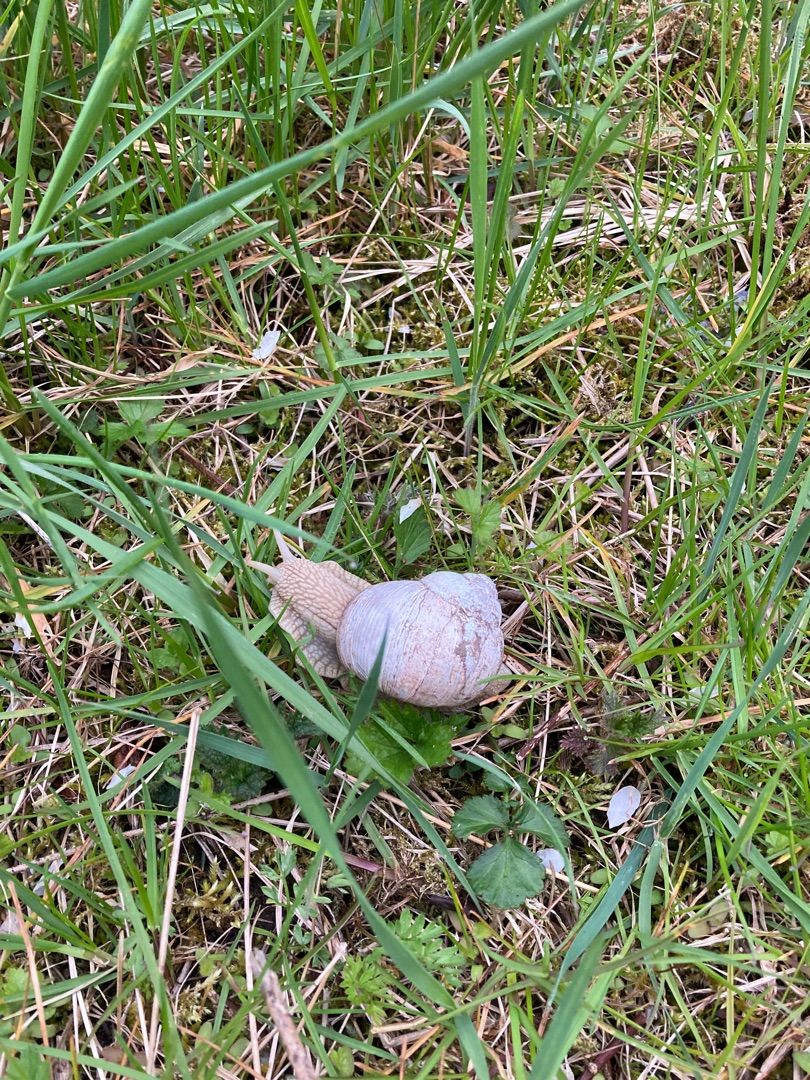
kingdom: Animalia
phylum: Mollusca
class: Gastropoda
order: Stylommatophora
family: Helicidae
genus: Helix
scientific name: Helix pomatia
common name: Vinbjergsnegl
